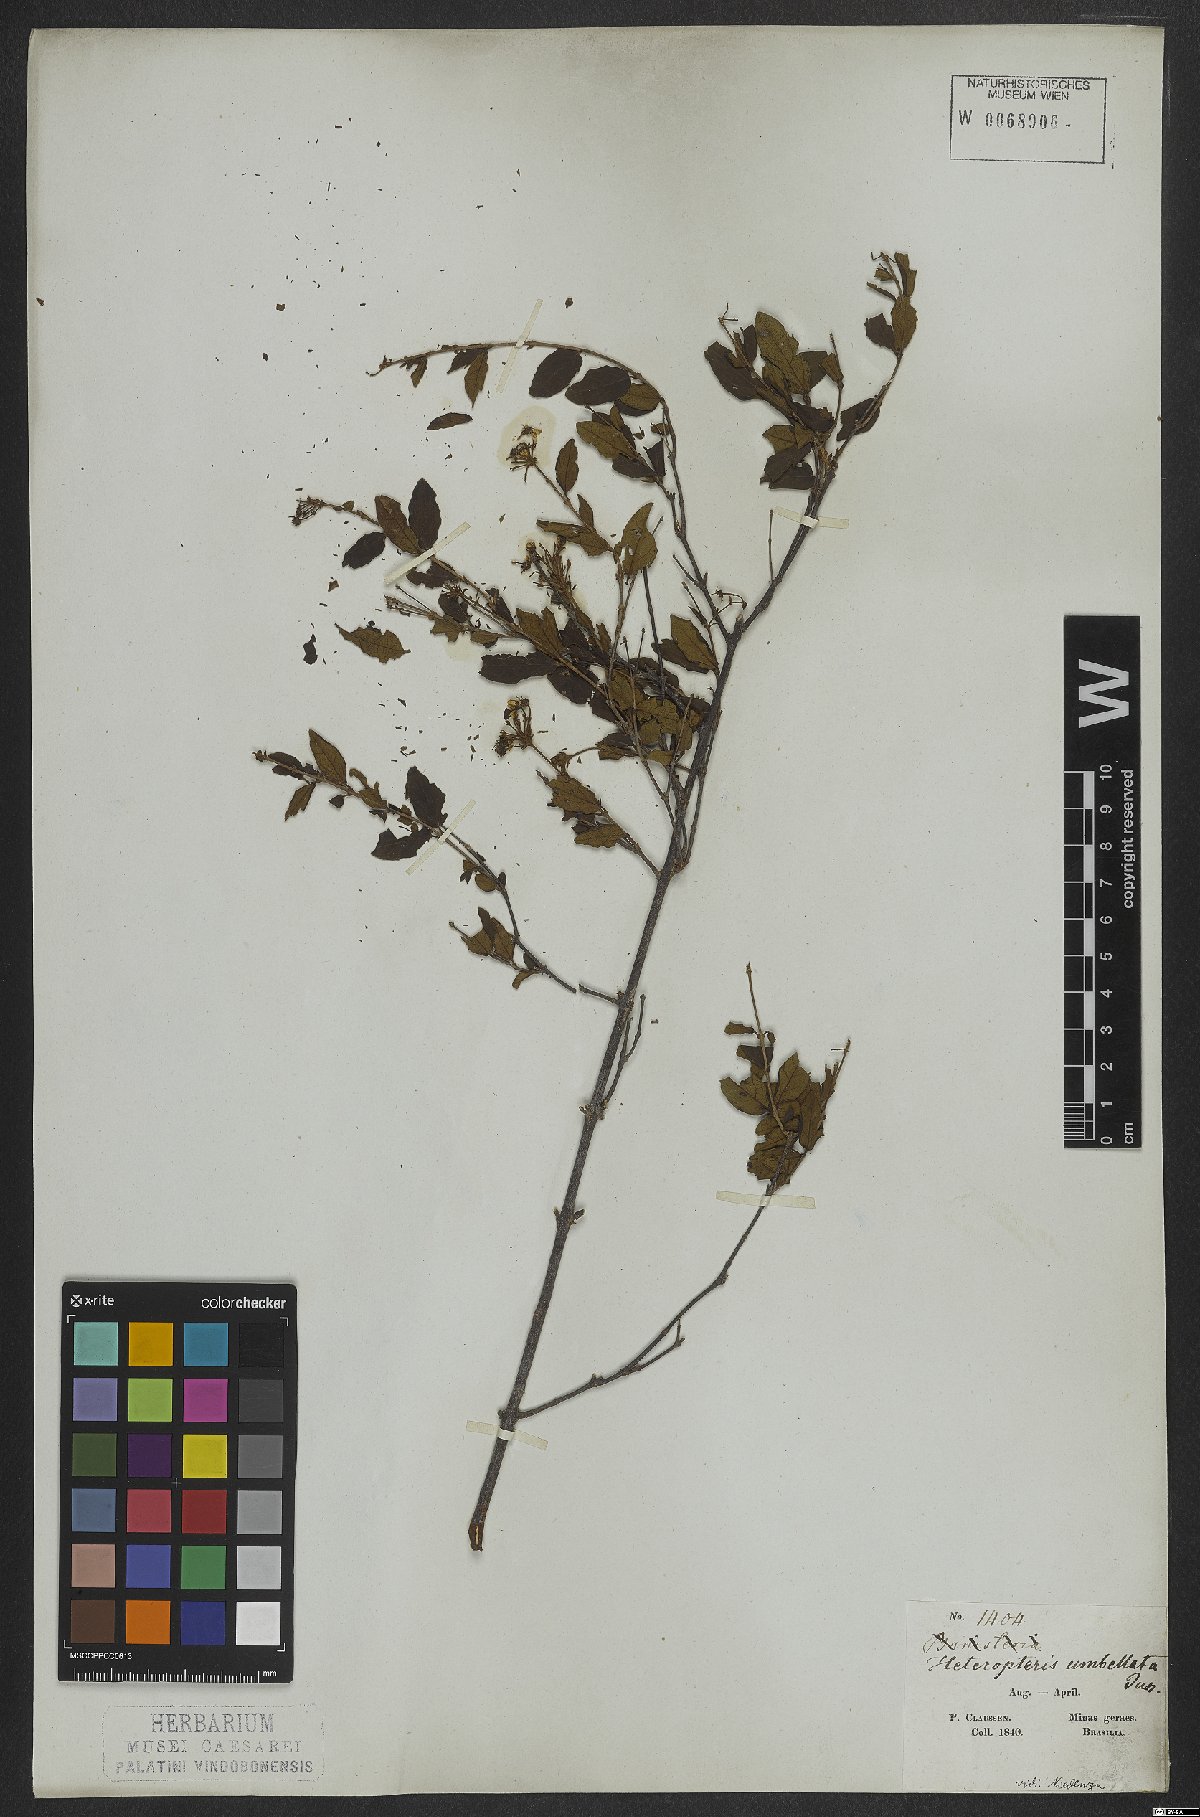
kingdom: Plantae
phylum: Tracheophyta
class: Magnoliopsida
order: Malpighiales
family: Malpighiaceae
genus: Heteropterys
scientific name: Heteropterys umbellata
